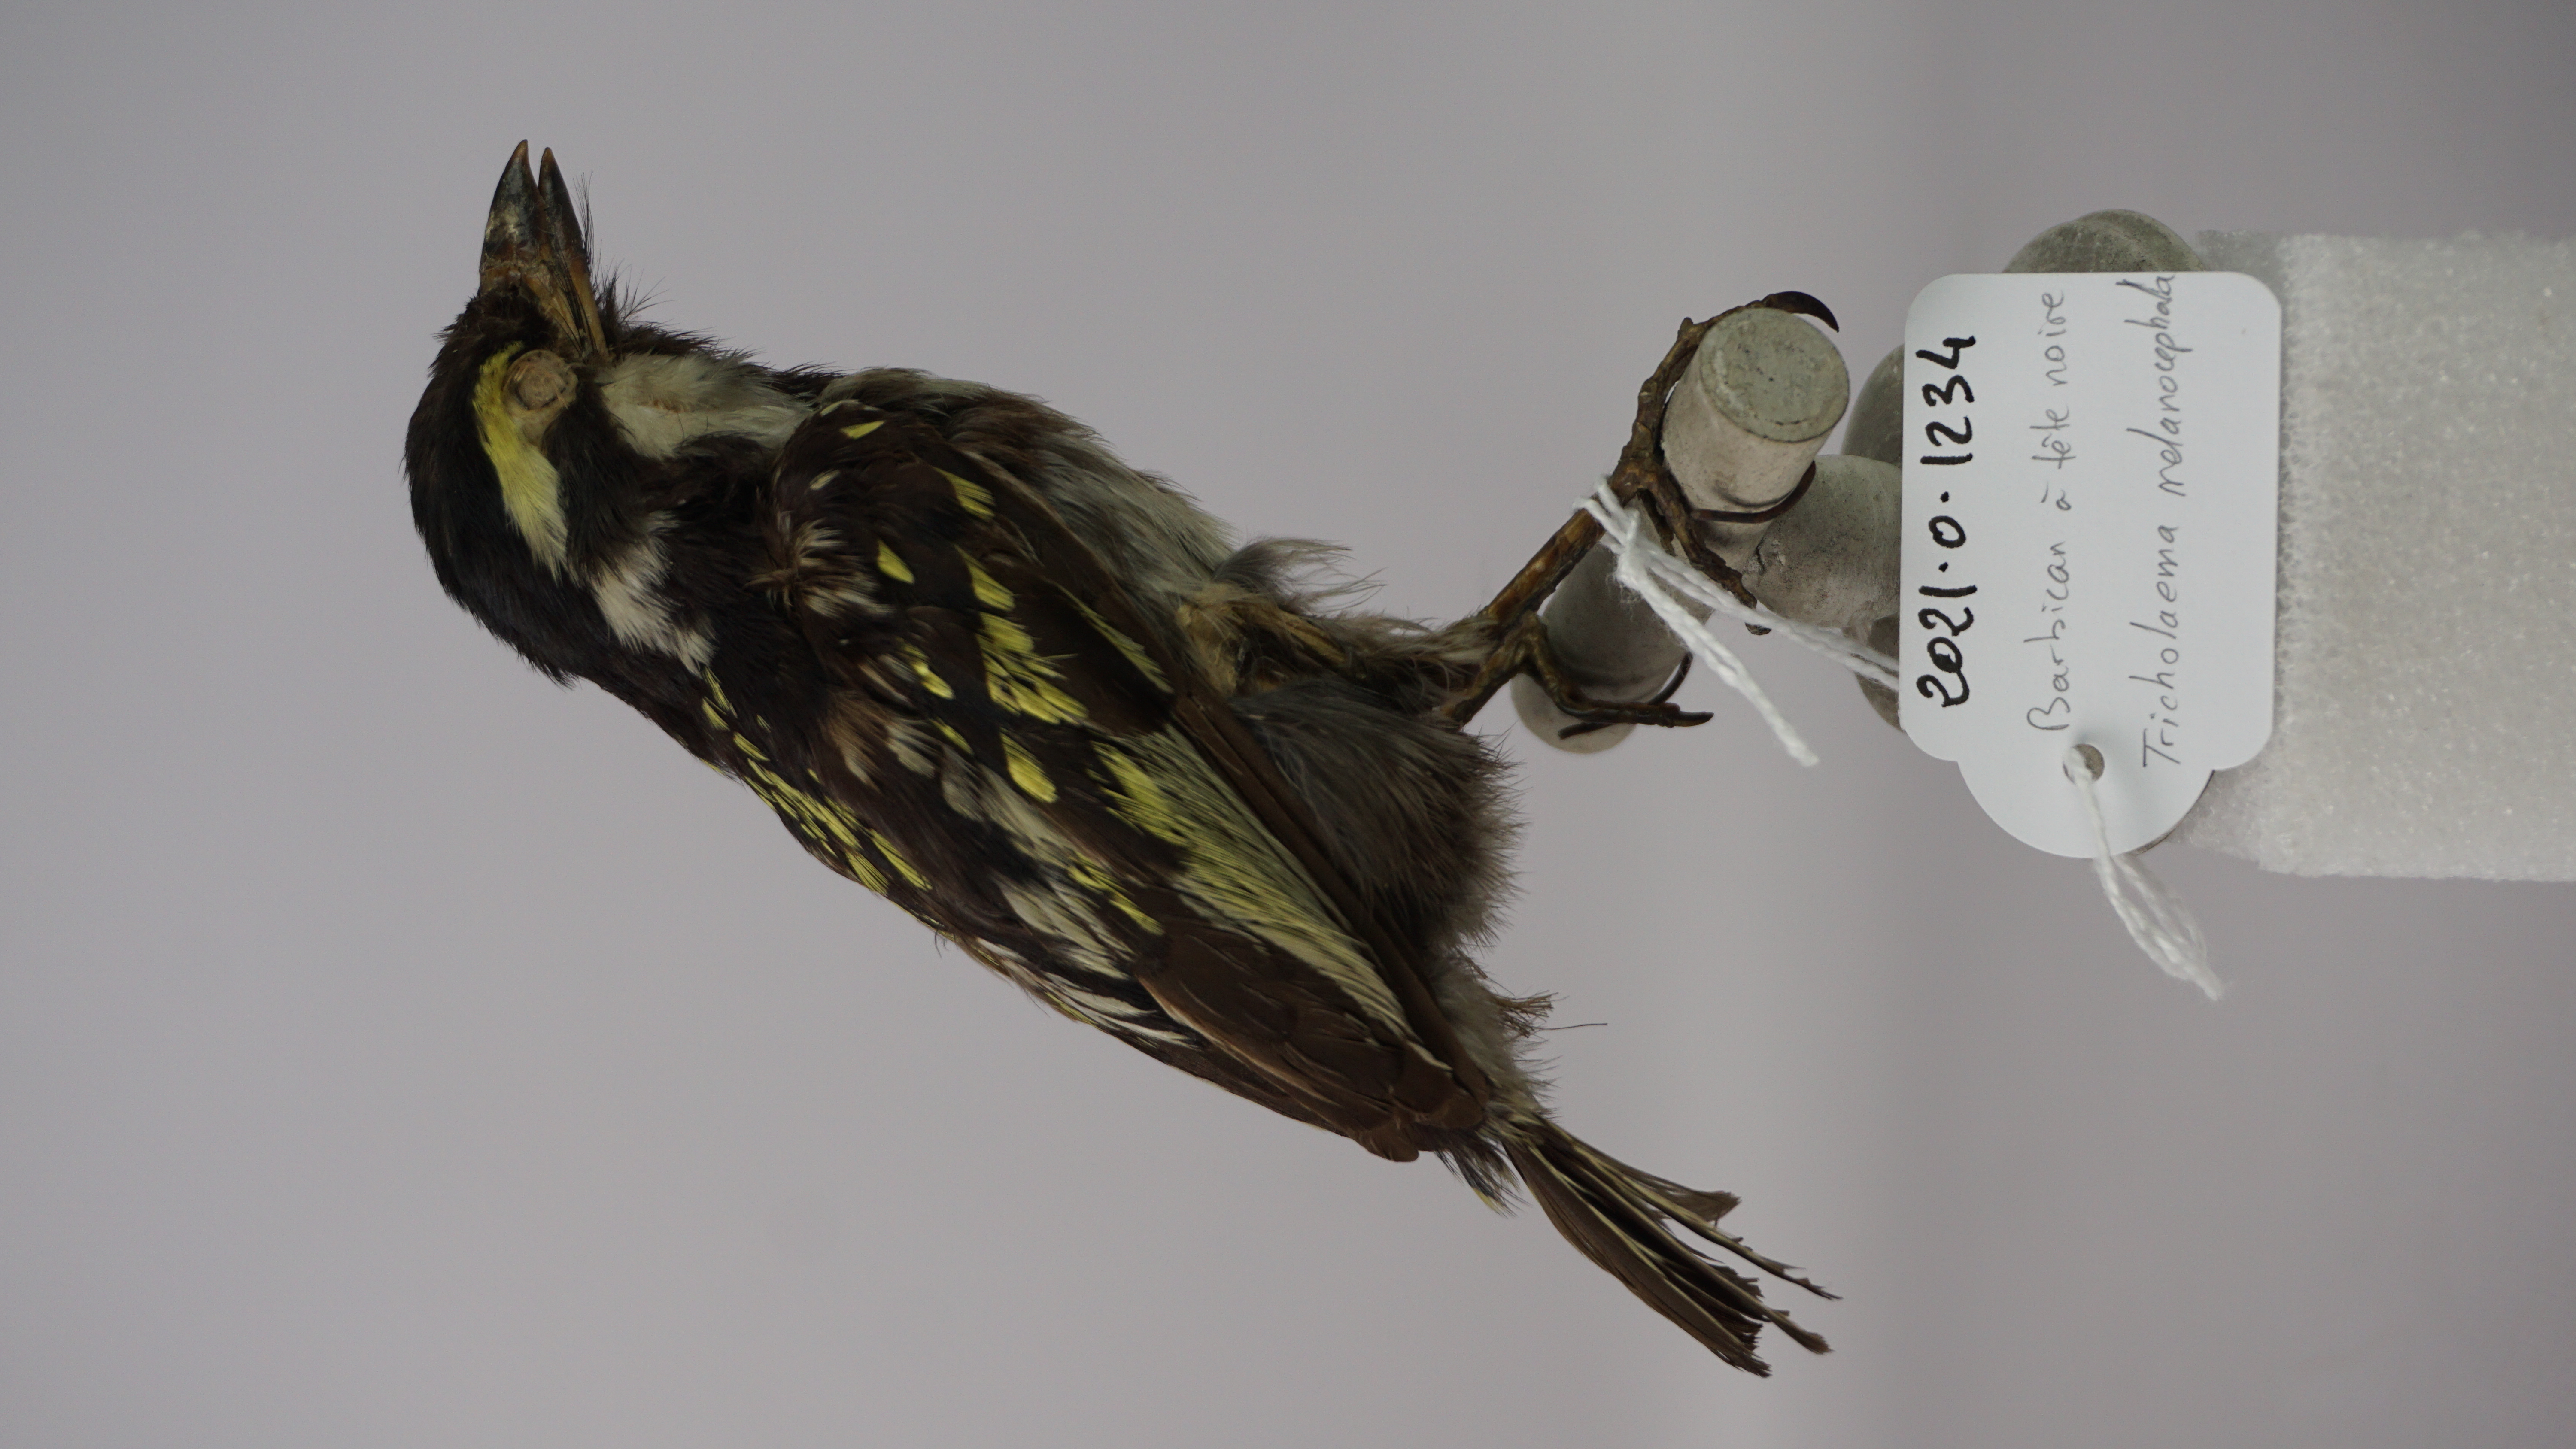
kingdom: Animalia
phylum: Chordata
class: Aves
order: Piciformes
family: Lybiidae
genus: Tricholaema
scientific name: Tricholaema melanocephala
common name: Black-throated barbet
